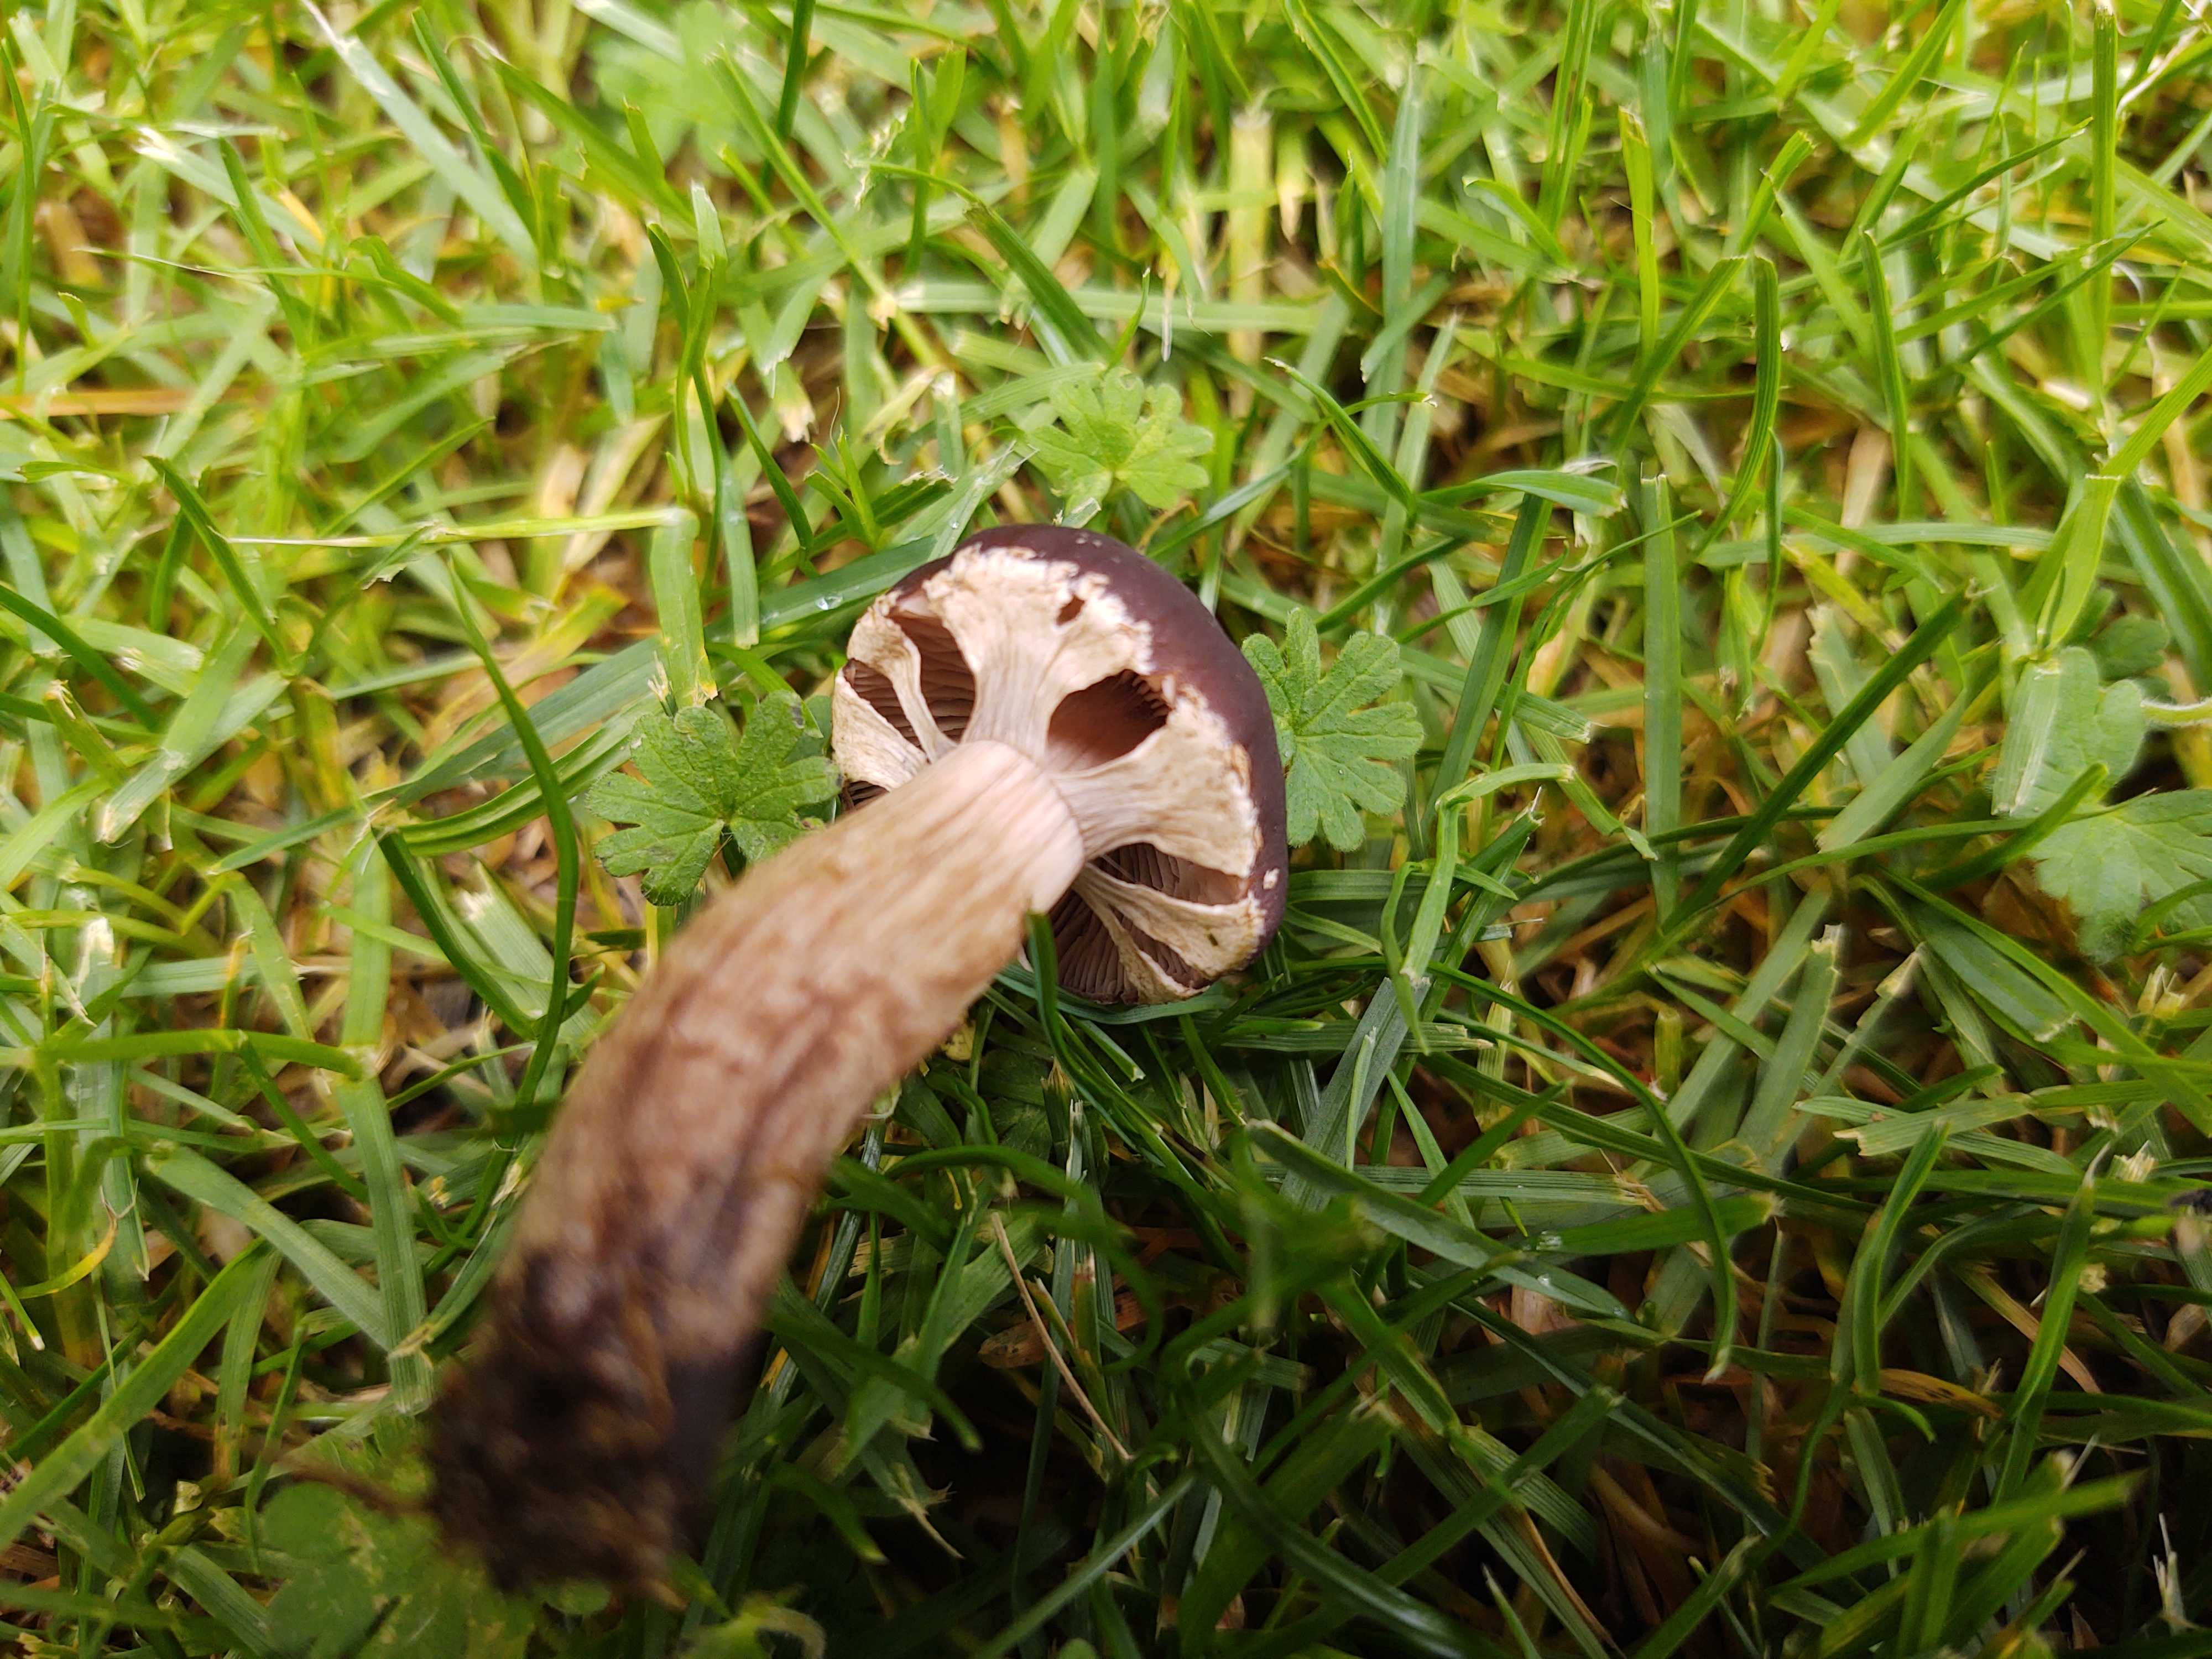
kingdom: Fungi
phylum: Basidiomycota
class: Agaricomycetes
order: Agaricales
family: Tubariaceae
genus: Cyclocybe
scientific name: Cyclocybe erebia
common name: mørk agerhat
